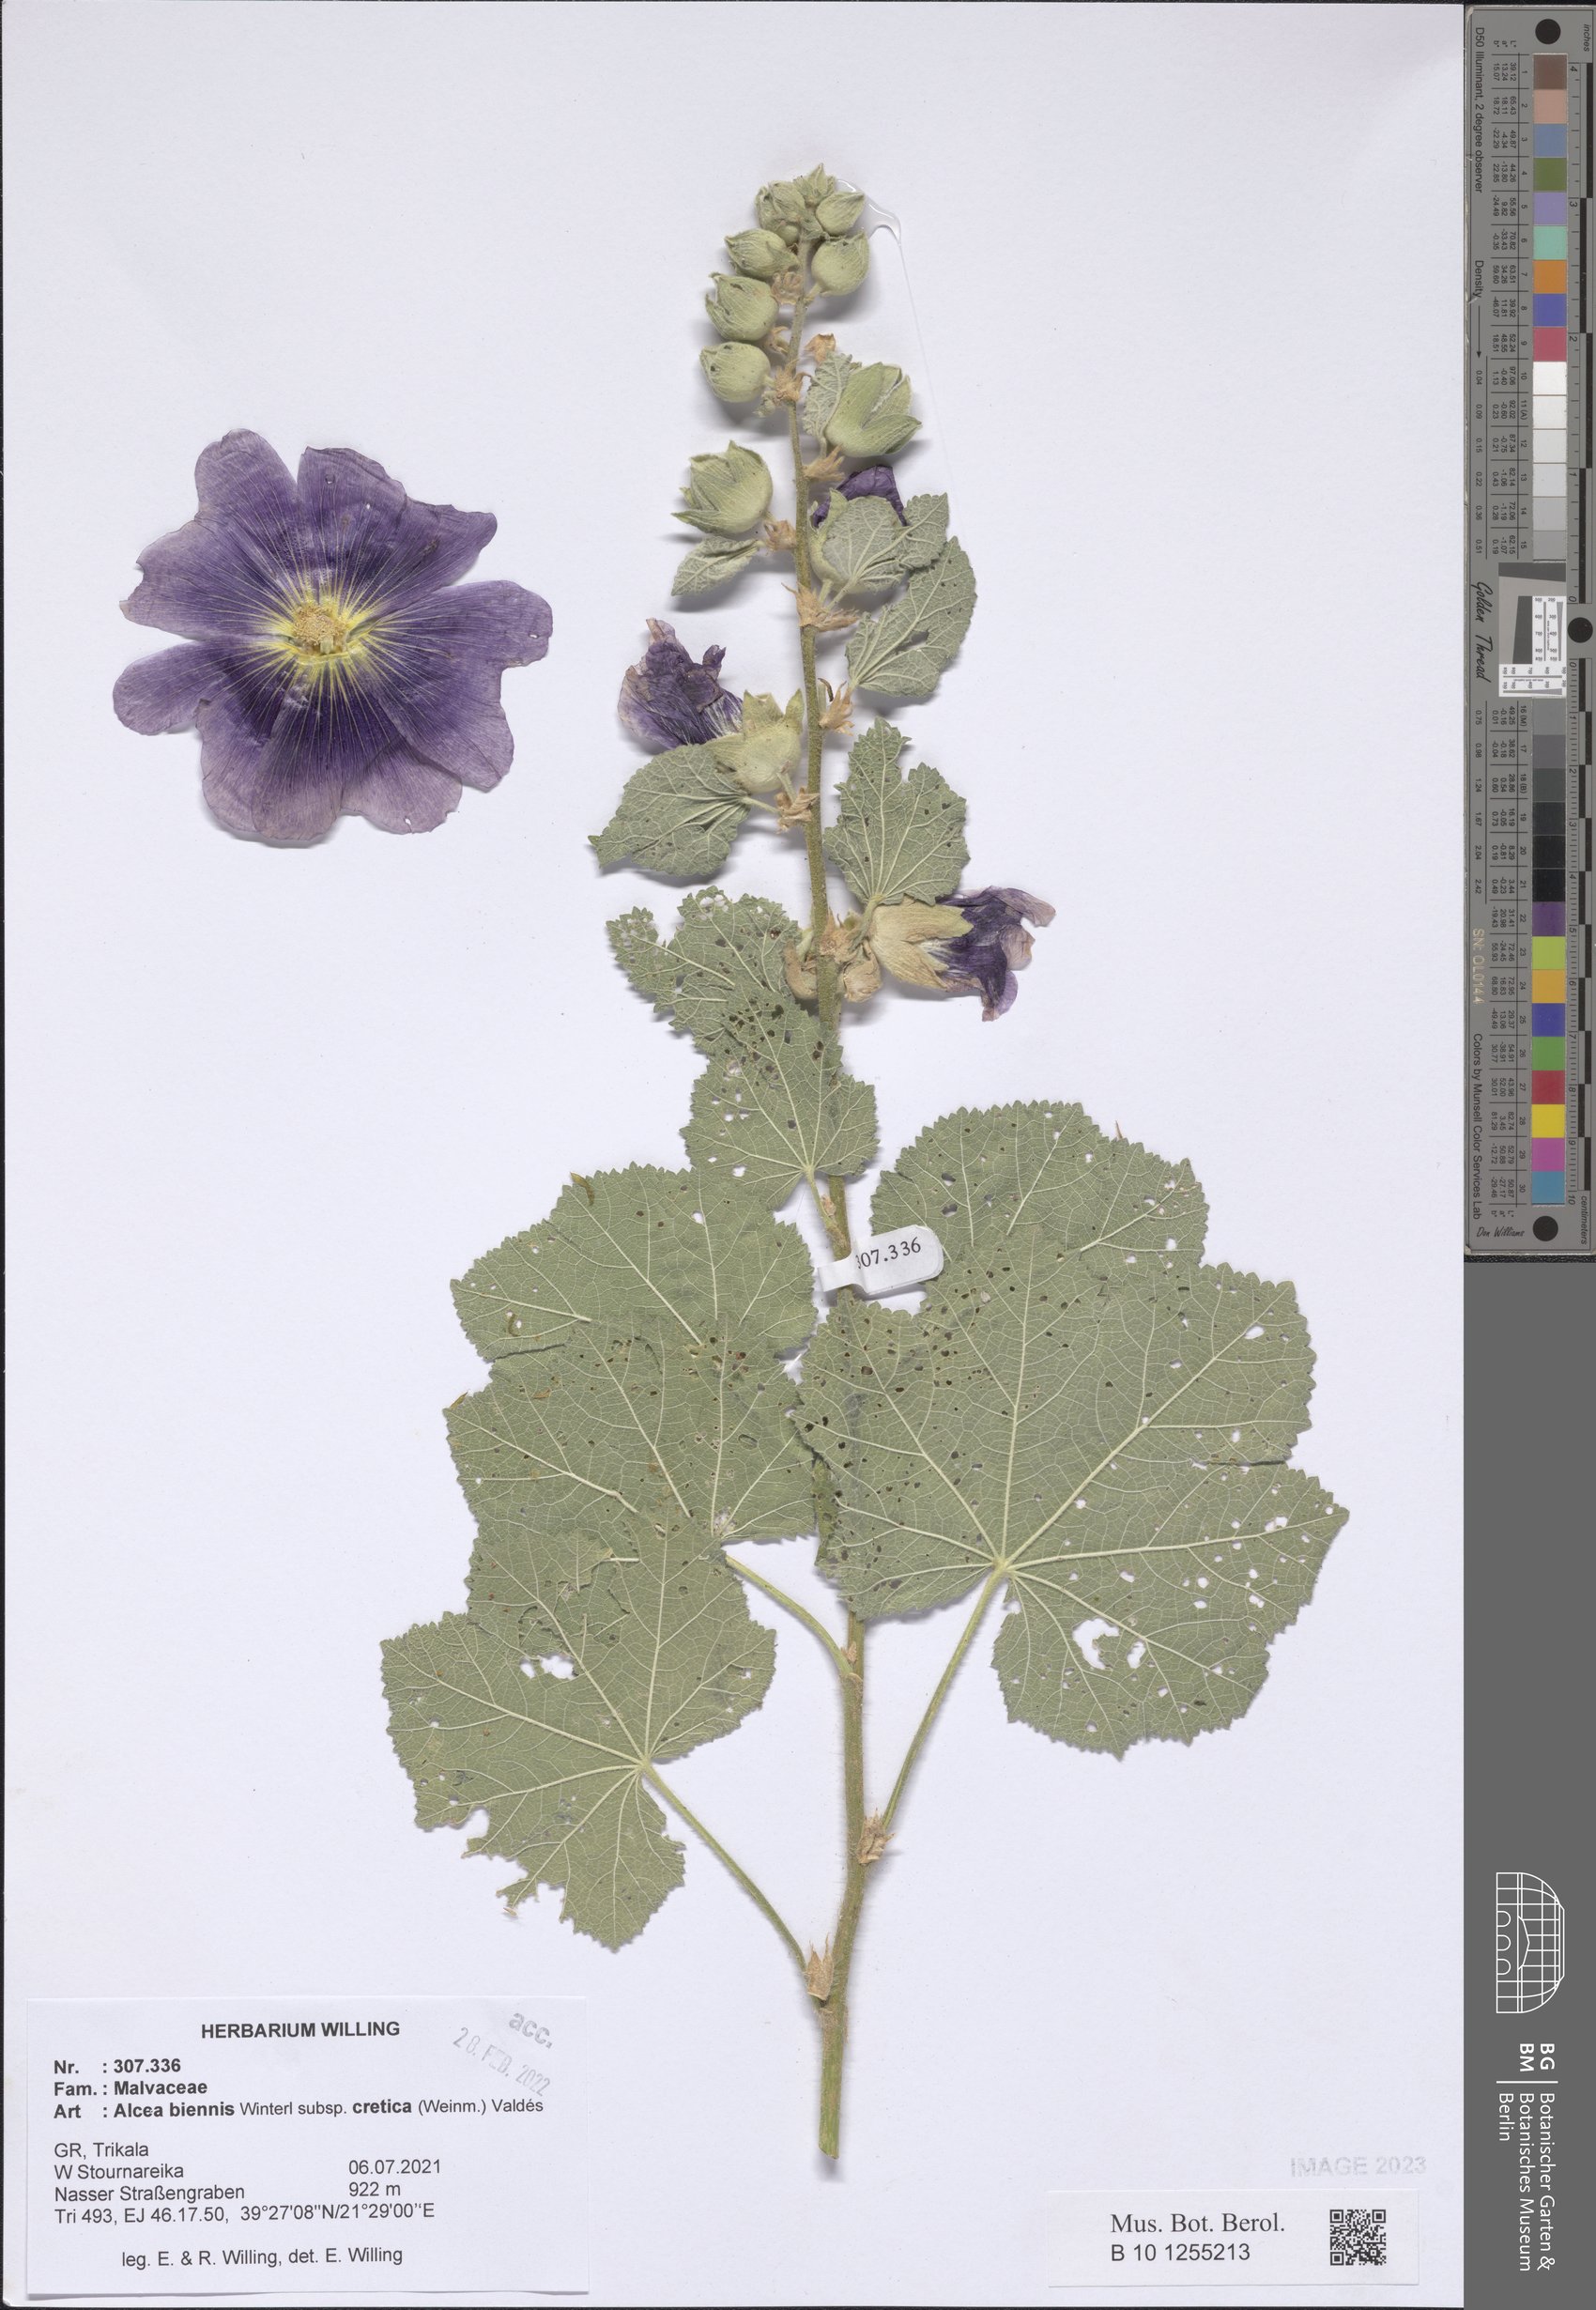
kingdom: Plantae
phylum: Tracheophyta
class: Magnoliopsida
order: Malvales
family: Malvaceae
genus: Alcea
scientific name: Alcea biennis
